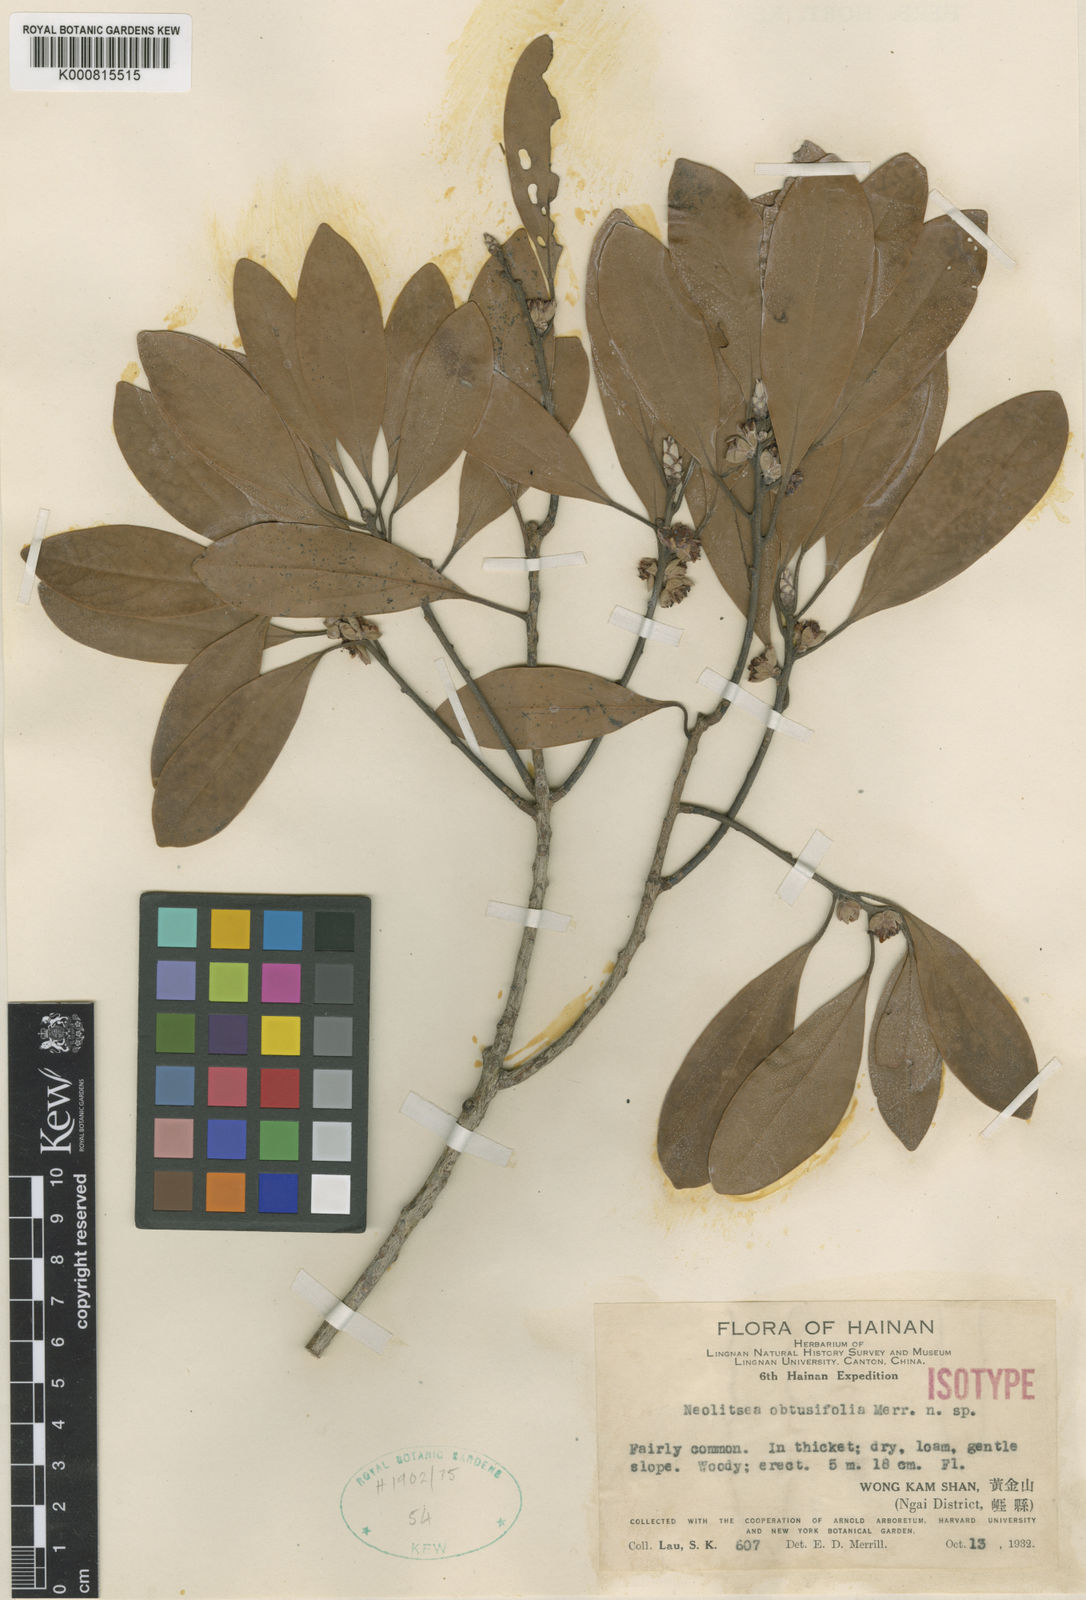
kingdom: Plantae
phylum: Tracheophyta
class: Magnoliopsida
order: Laurales
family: Lauraceae
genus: Neolitsea
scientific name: Neolitsea obtusifolia
